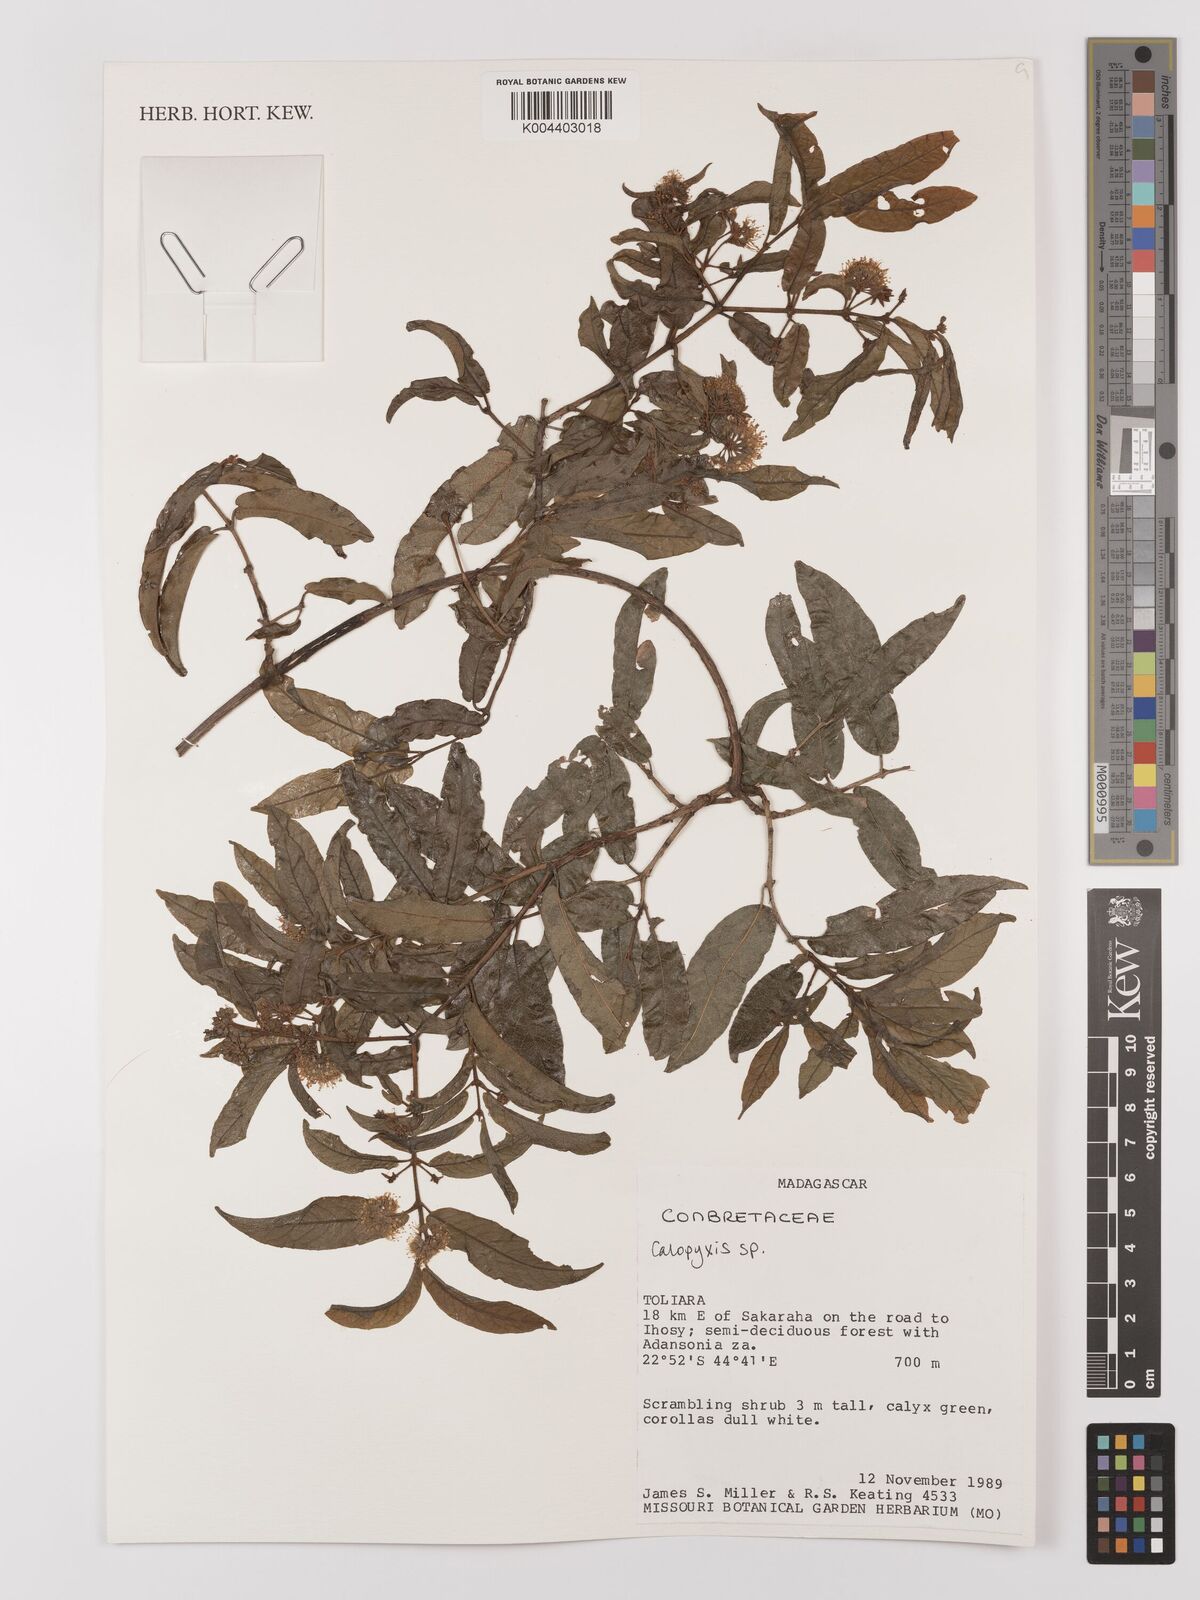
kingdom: Plantae
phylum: Tracheophyta
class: Magnoliopsida
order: Myrtales
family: Combretaceae
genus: Combretum
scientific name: Combretum
